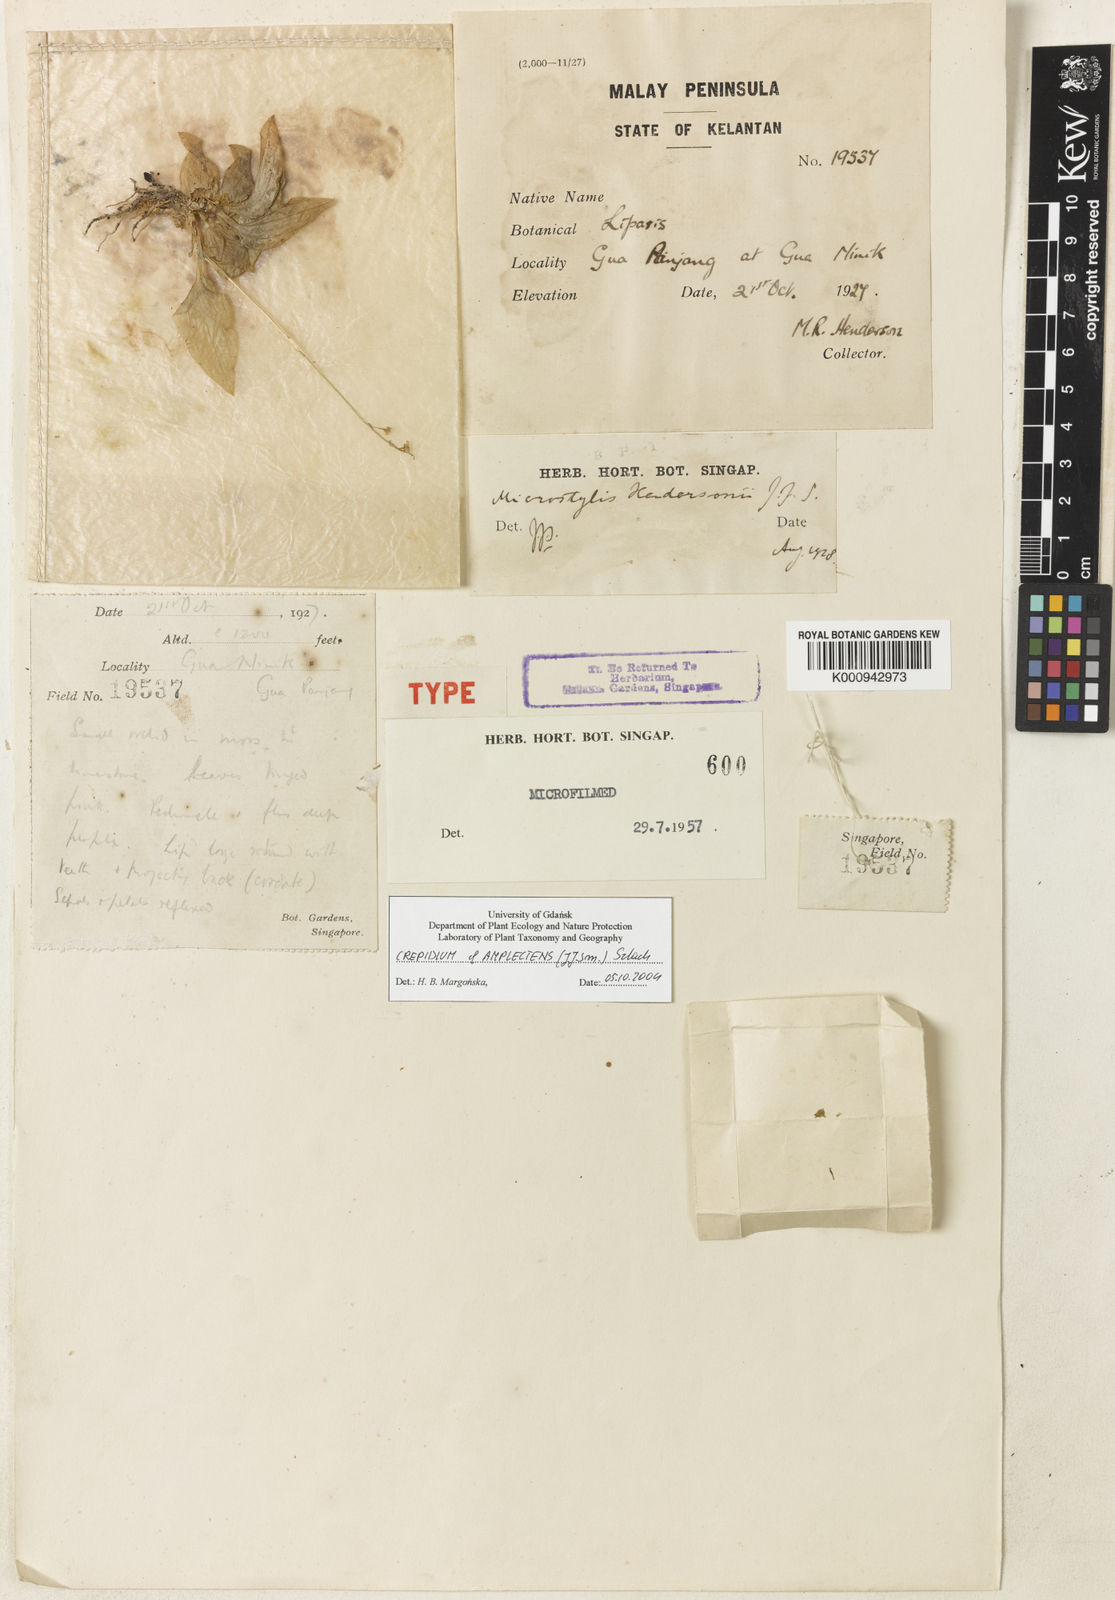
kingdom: Plantae
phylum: Tracheophyta
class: Liliopsida
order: Asparagales
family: Orchidaceae
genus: Crepidium
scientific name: Crepidium
